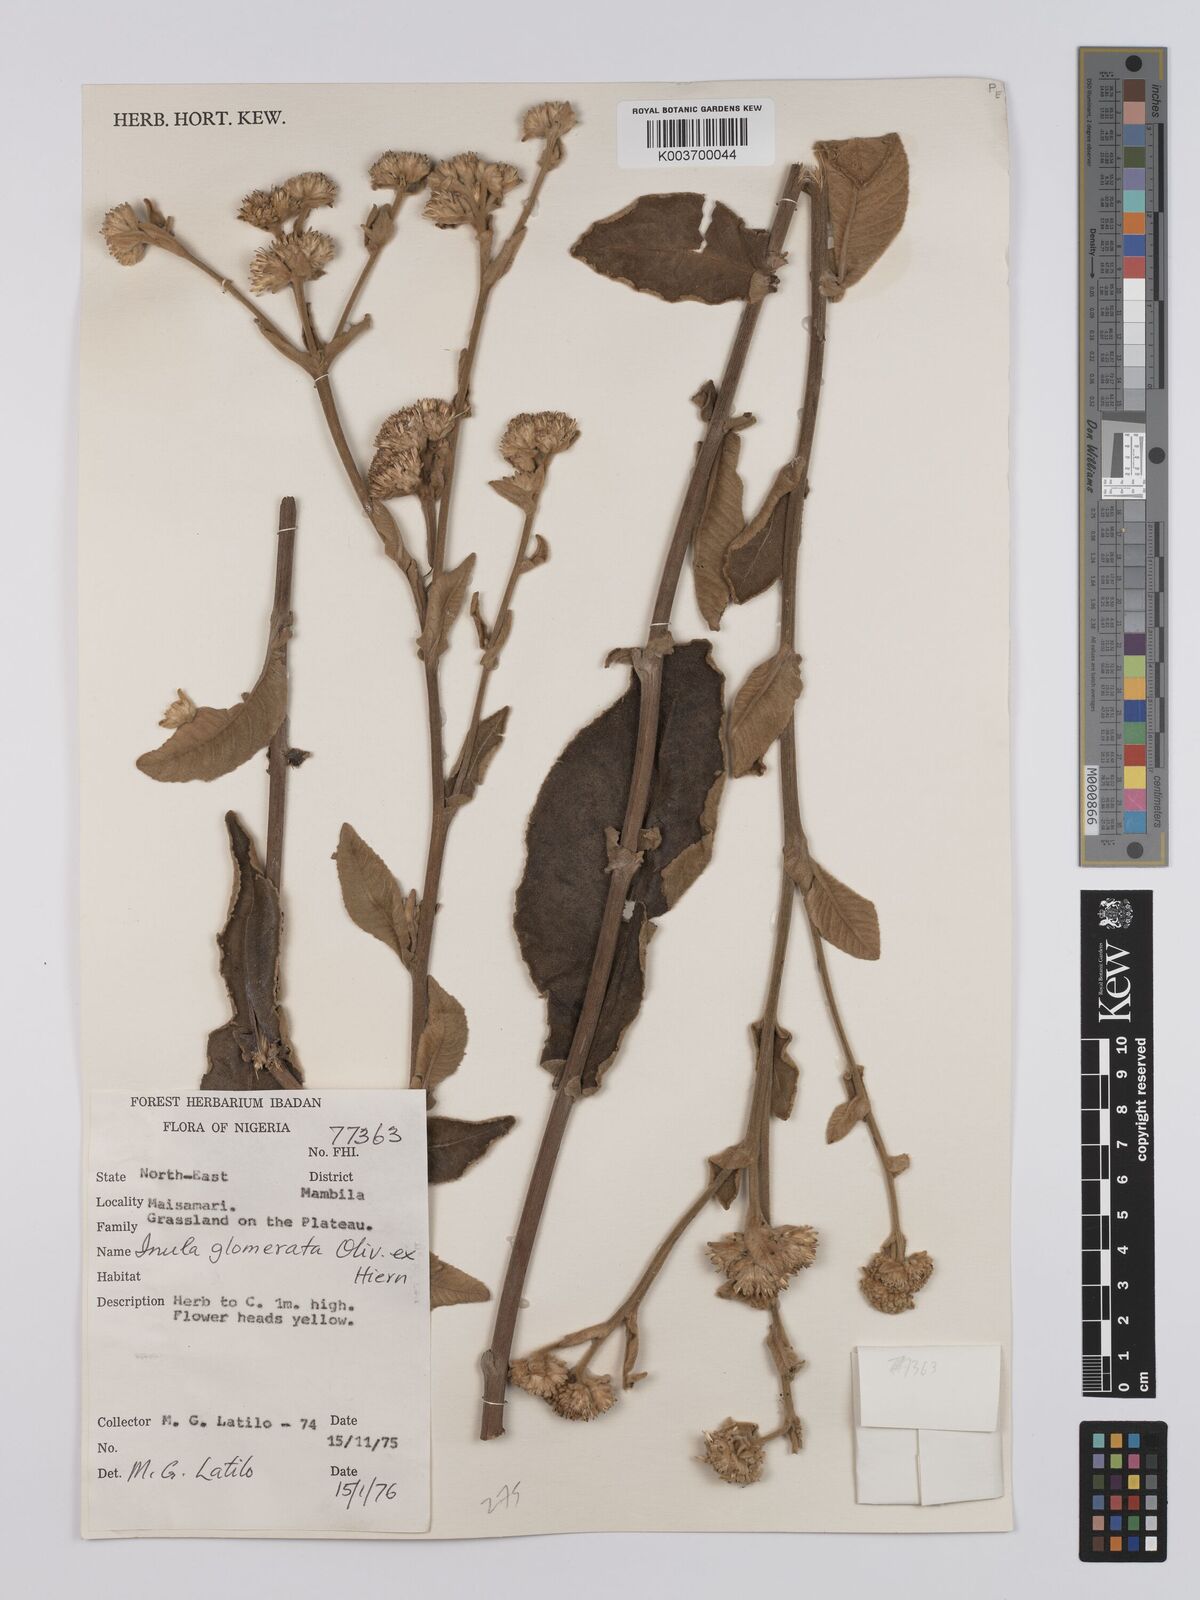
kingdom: Plantae
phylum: Tracheophyta
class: Magnoliopsida
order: Asterales
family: Asteraceae
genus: Inula
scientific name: Inula glomerata
